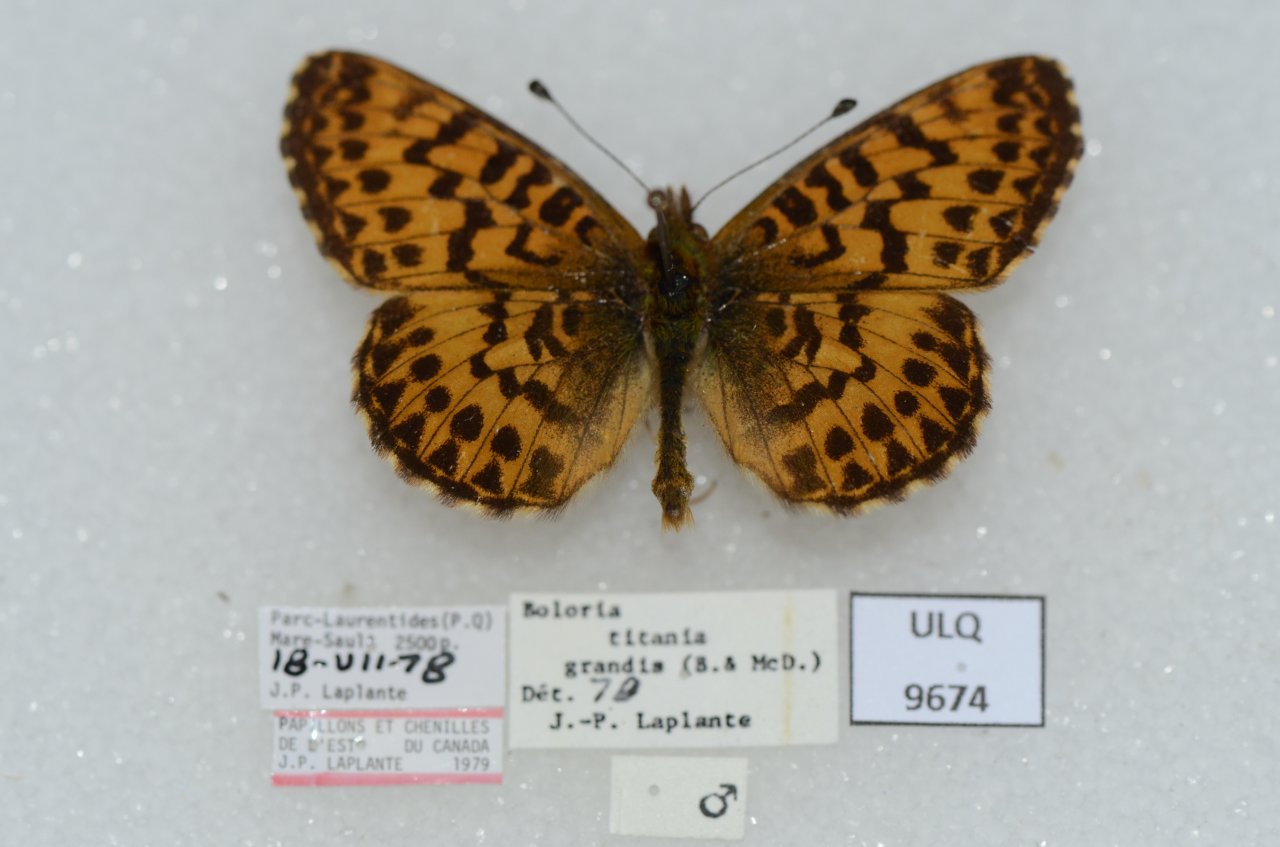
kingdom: Animalia
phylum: Arthropoda
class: Insecta
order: Lepidoptera
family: Nymphalidae
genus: Boloria
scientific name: Boloria chariclea
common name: Arctic Fritillary
